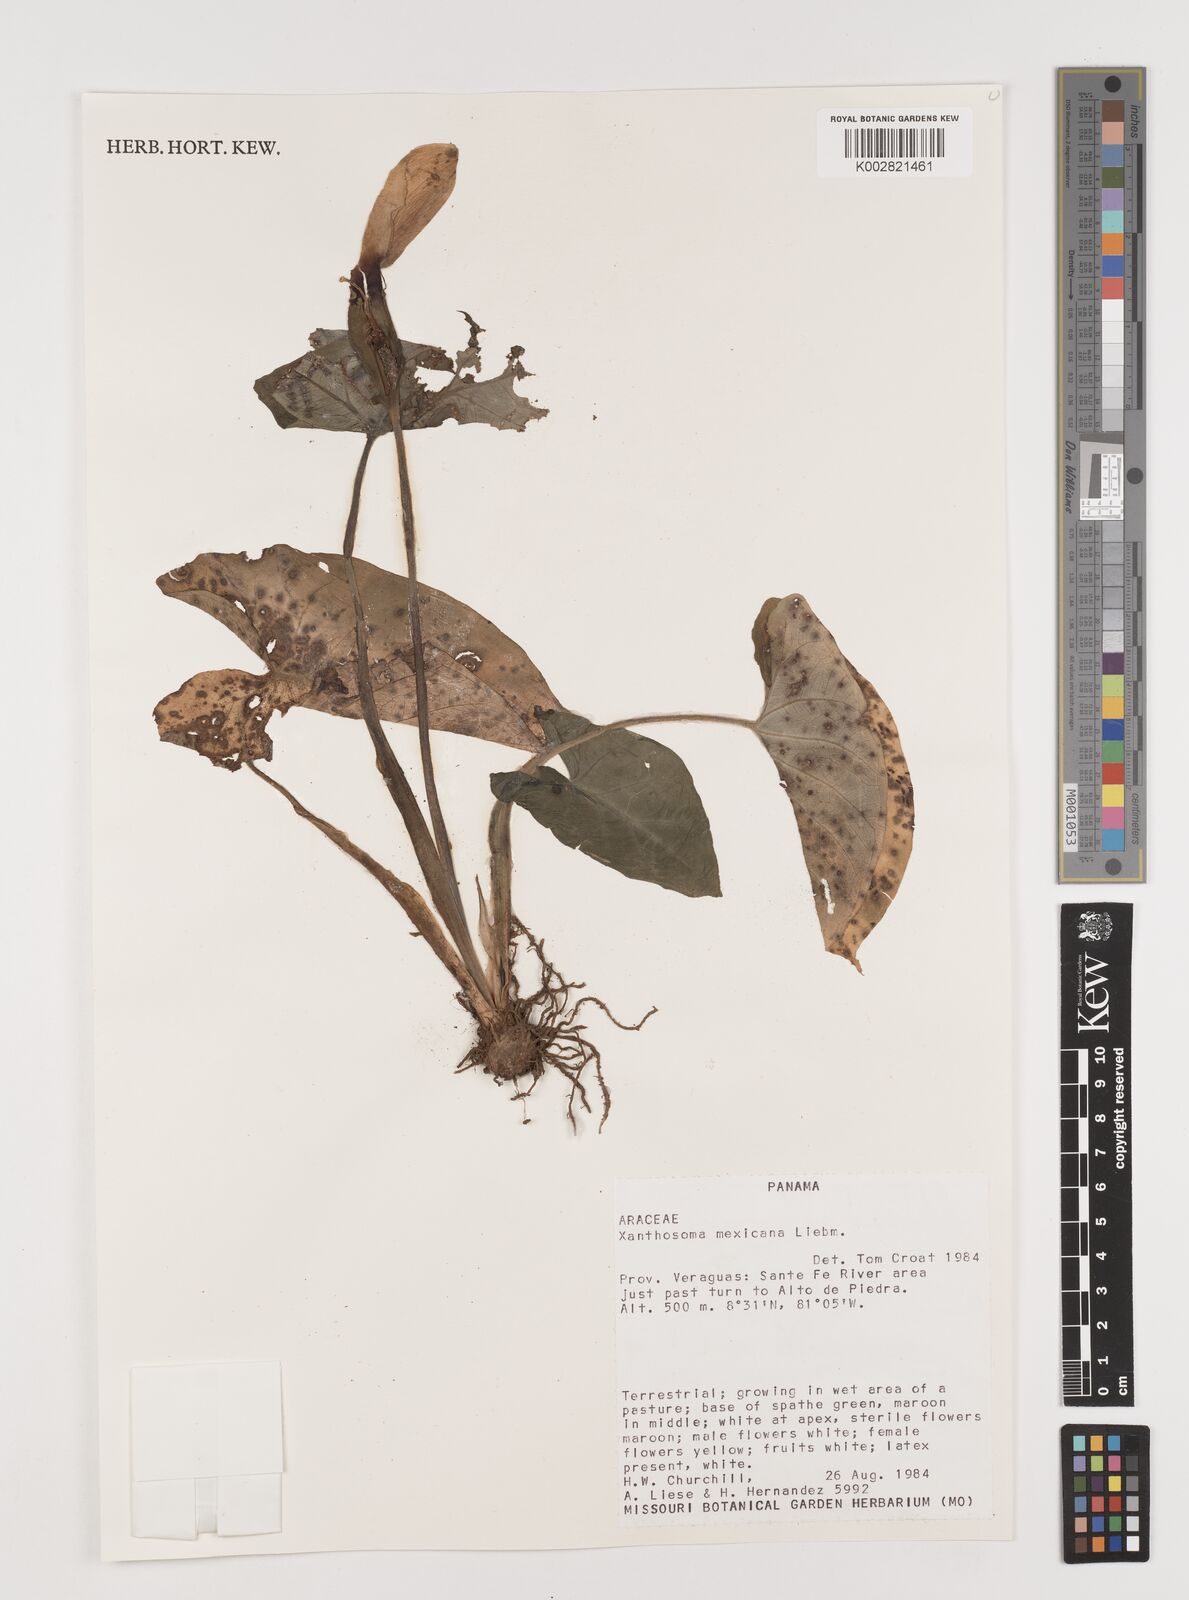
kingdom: Plantae
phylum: Tracheophyta
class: Liliopsida
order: Alismatales
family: Araceae
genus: Xanthosoma
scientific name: Xanthosoma mexicanum
